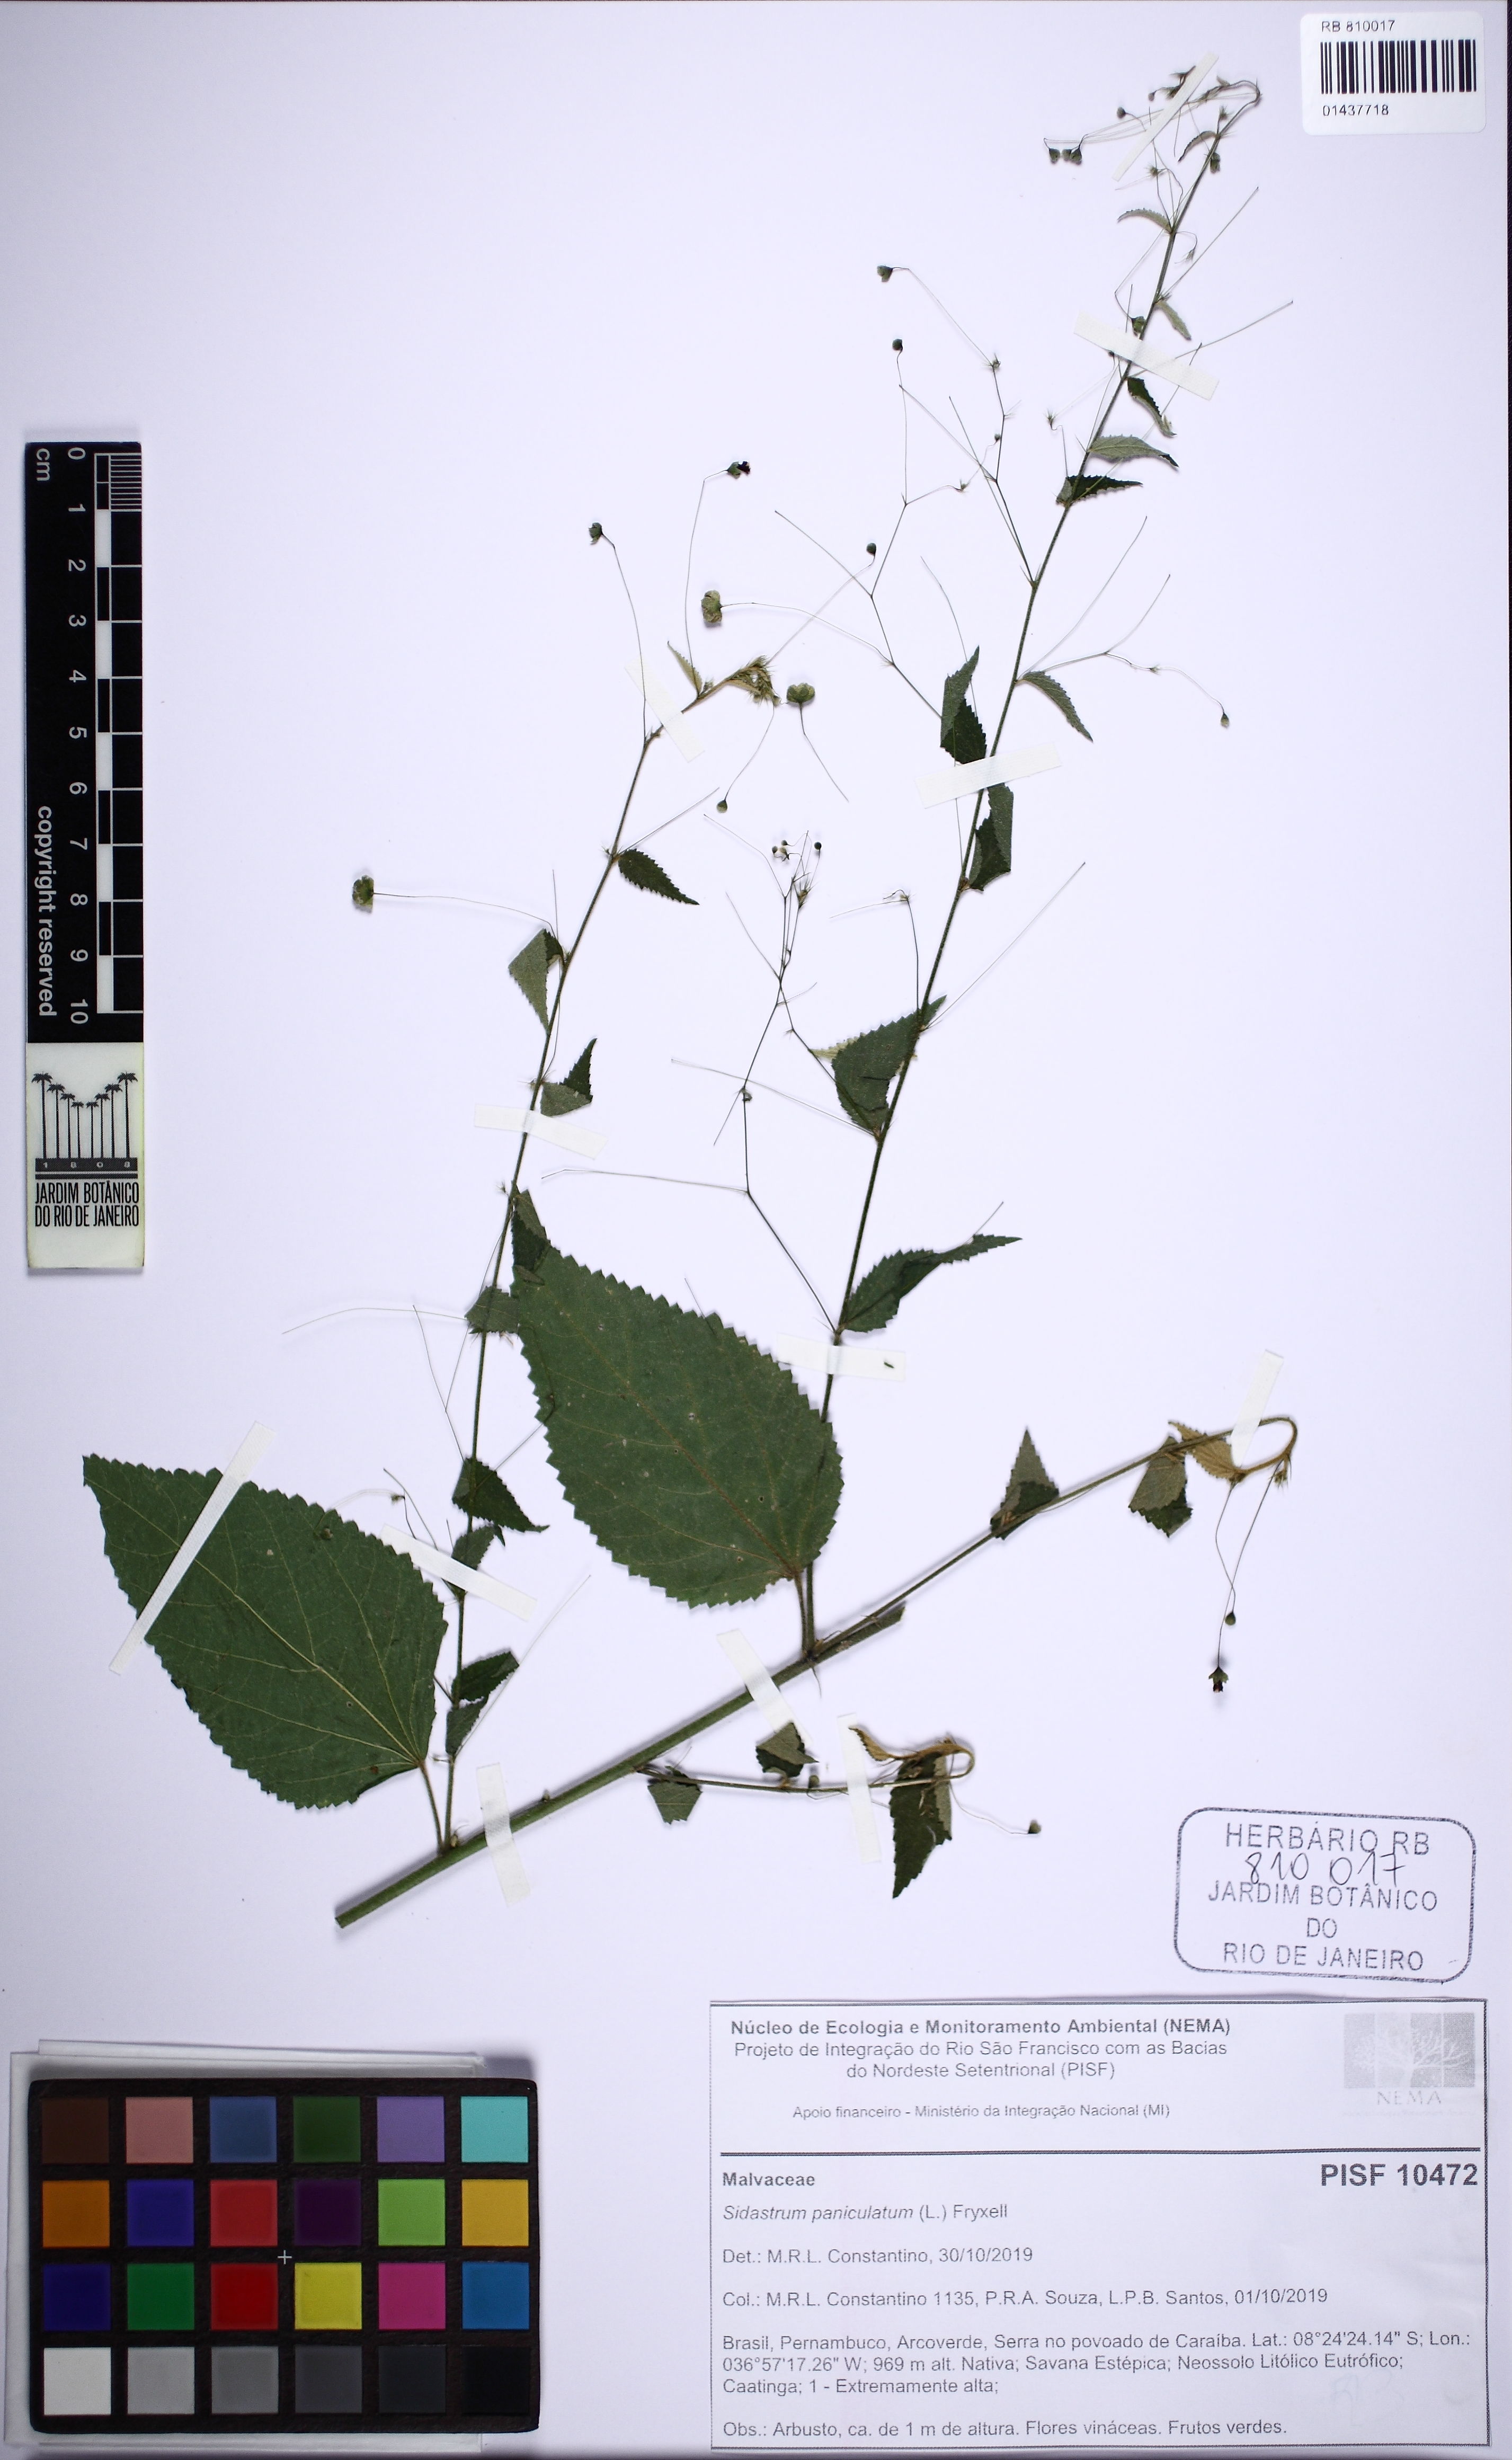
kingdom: Plantae
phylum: Tracheophyta
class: Magnoliopsida
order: Malvales
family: Malvaceae
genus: Sidastrum
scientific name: Sidastrum paniculatum
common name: Panicled sandmallow
